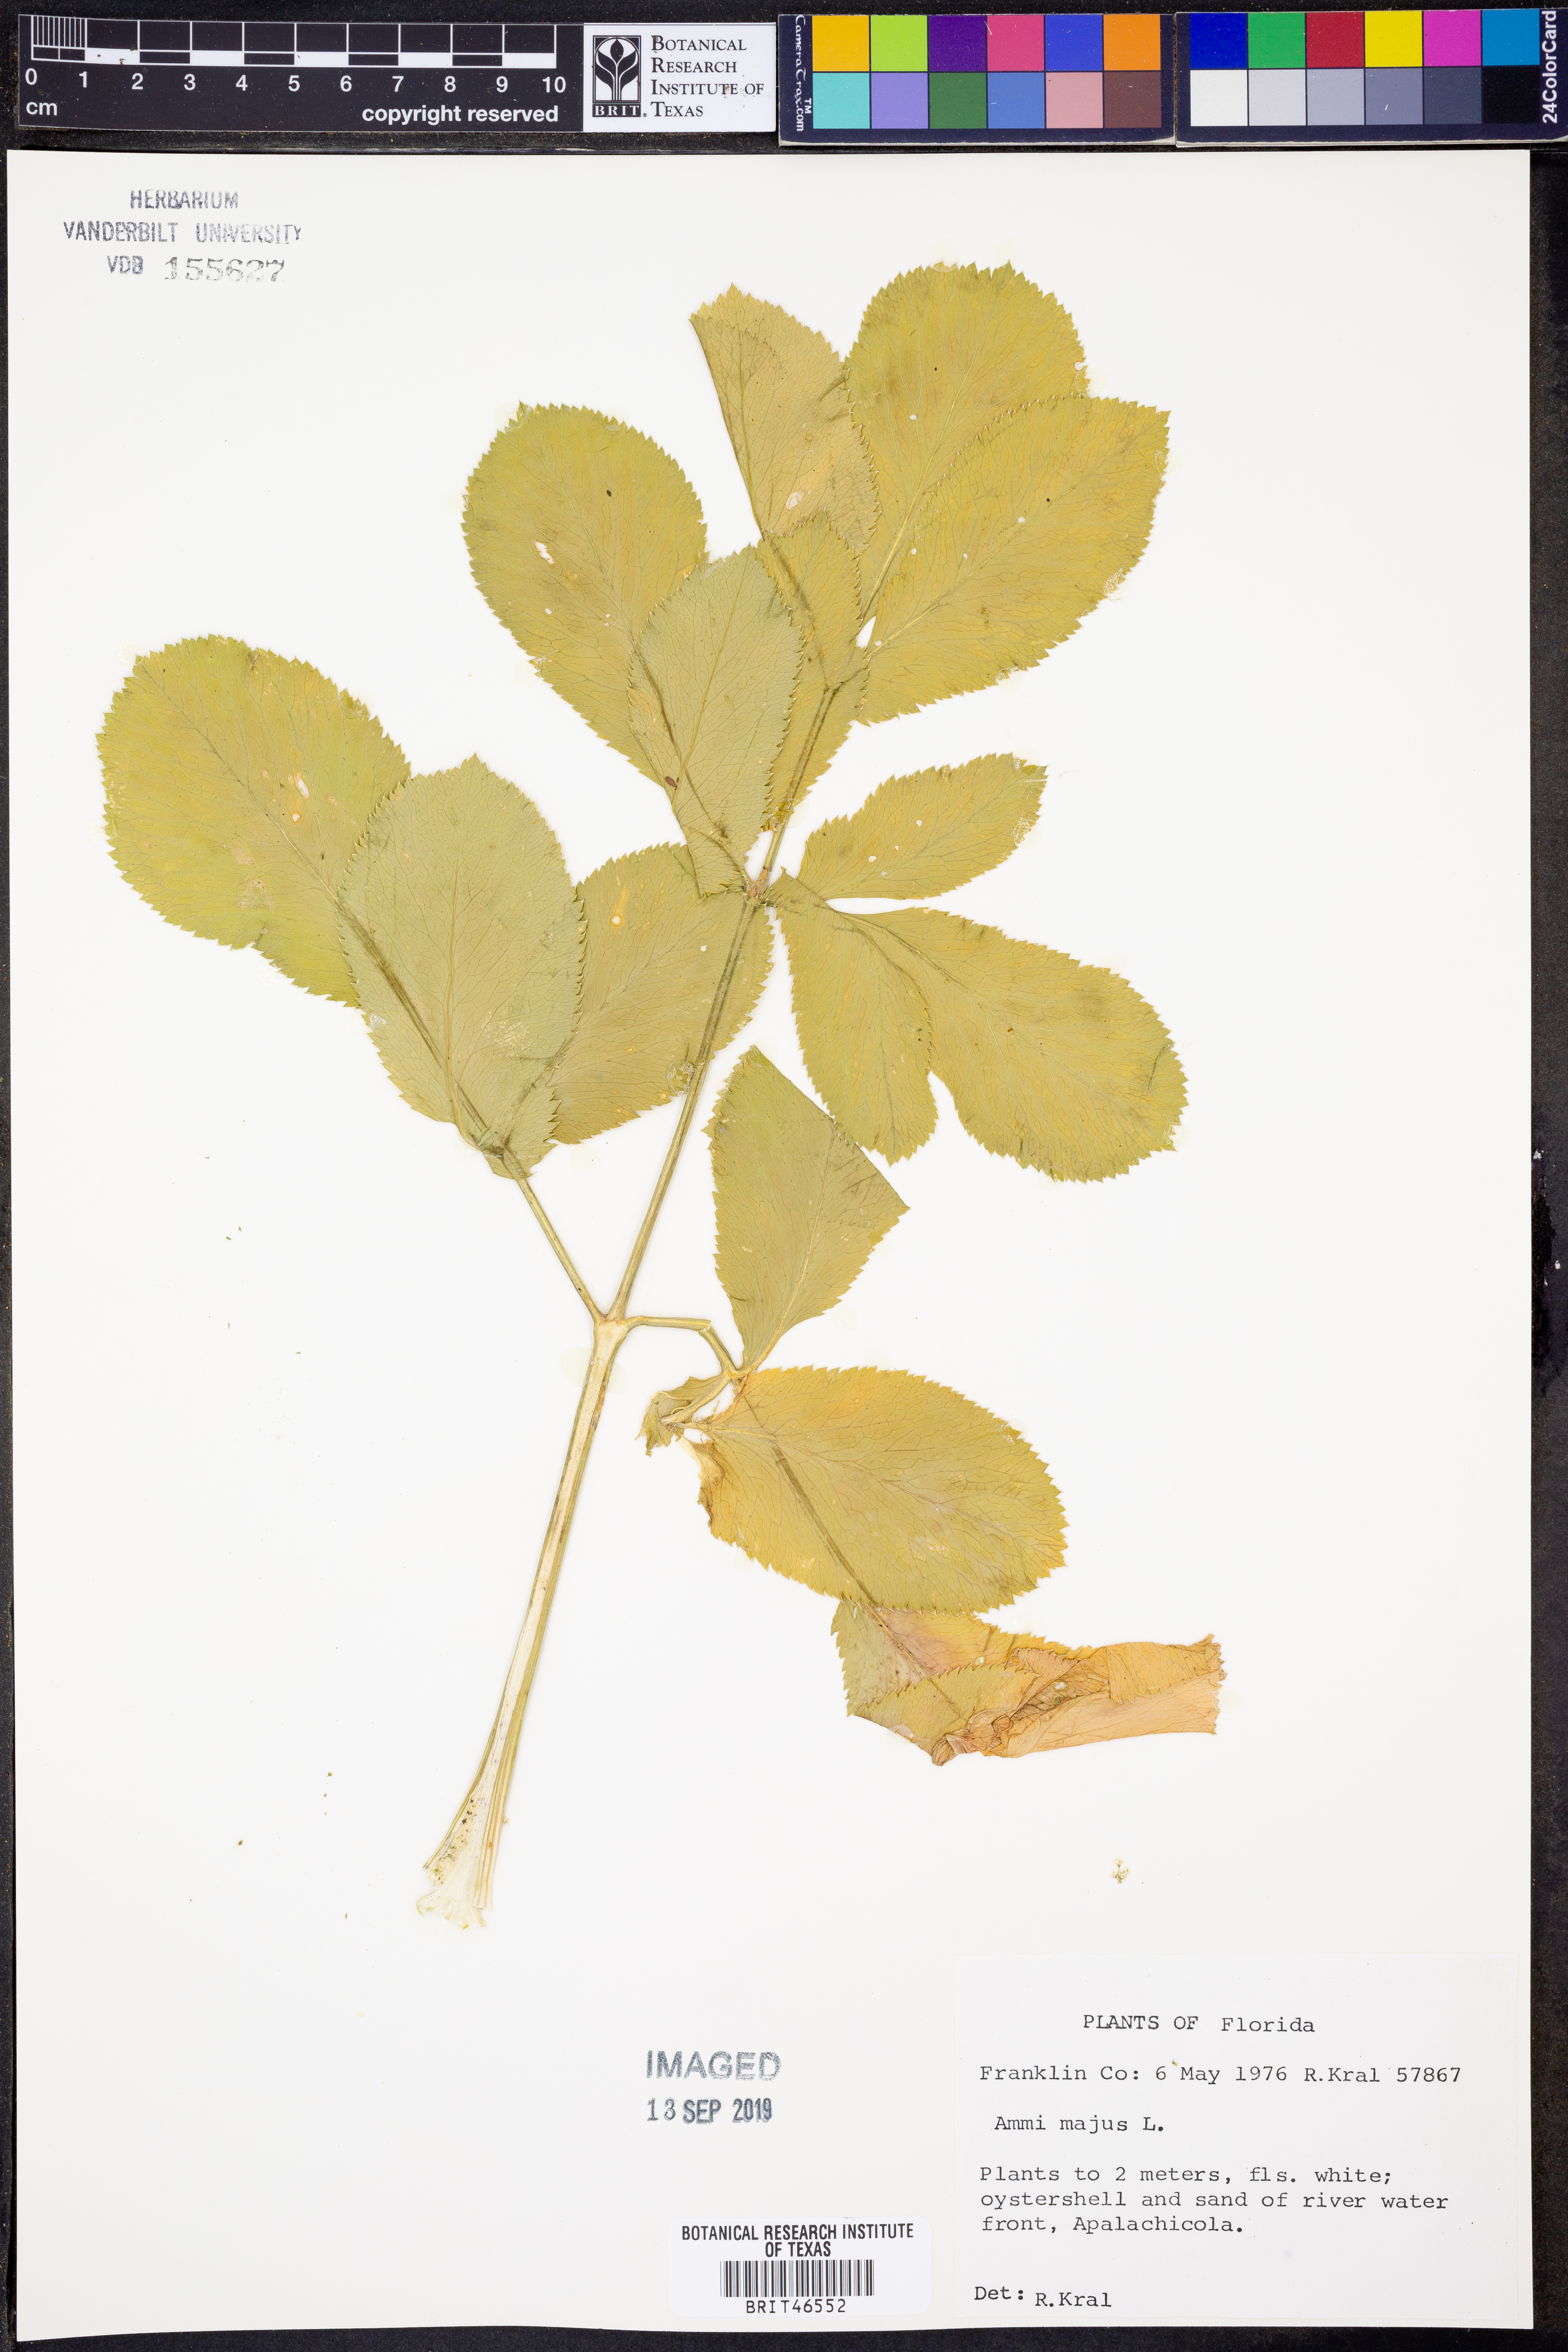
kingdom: Plantae
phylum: Tracheophyta
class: Magnoliopsida
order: Apiales
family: Apiaceae
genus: Ammi
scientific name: Ammi majus
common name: Bullwort
